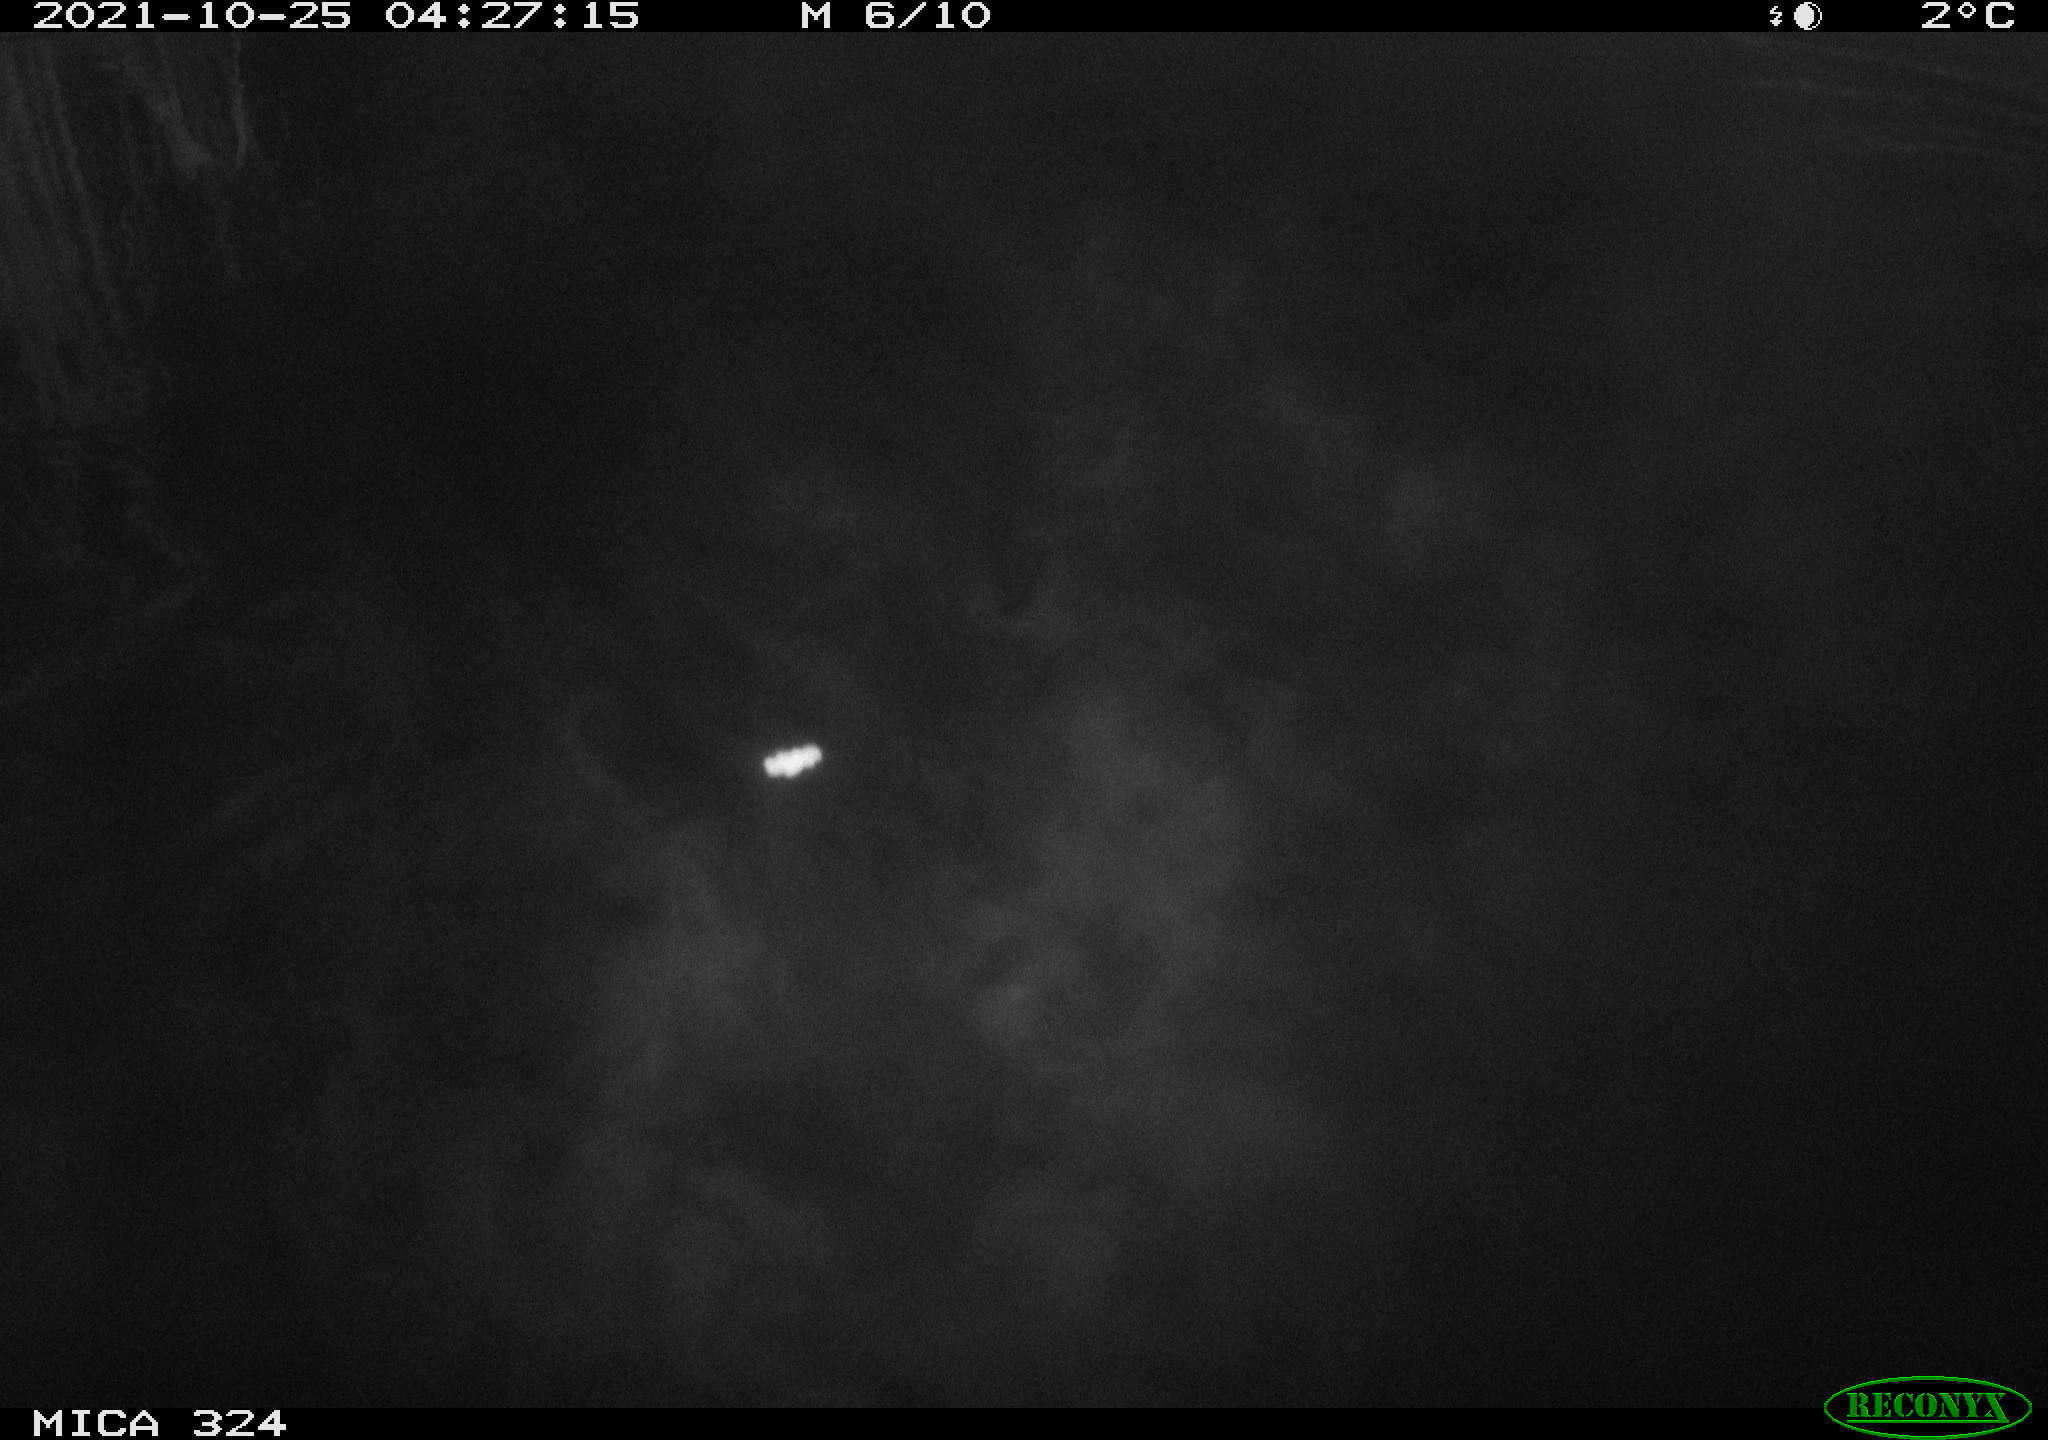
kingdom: Animalia
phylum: Chordata
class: Mammalia
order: Rodentia
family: Cricetidae
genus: Ondatra
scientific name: Ondatra zibethicus
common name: Muskrat
